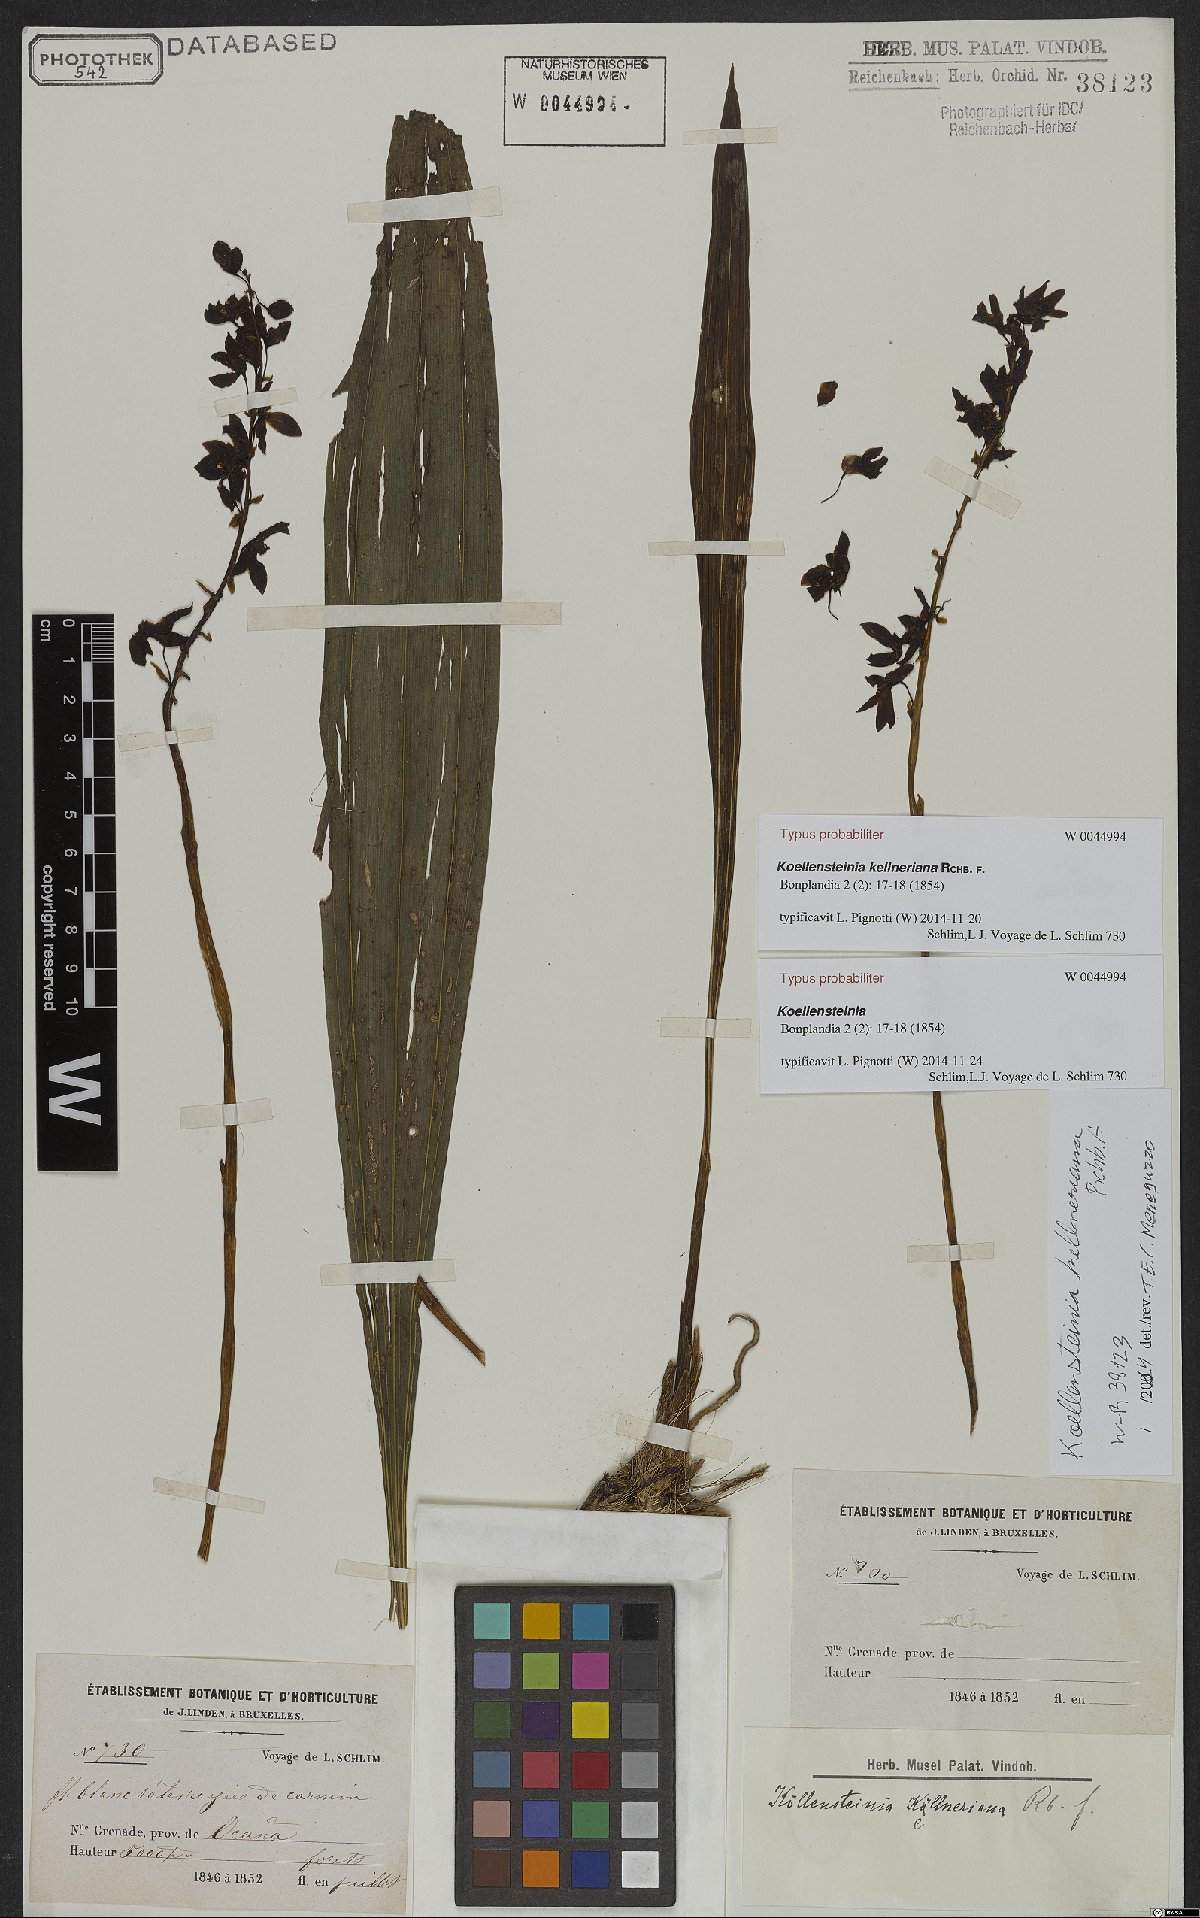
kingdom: Plantae
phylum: Tracheophyta
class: Liliopsida
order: Asparagales
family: Orchidaceae
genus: Koellensteinia
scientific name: Koellensteinia kellneriana
